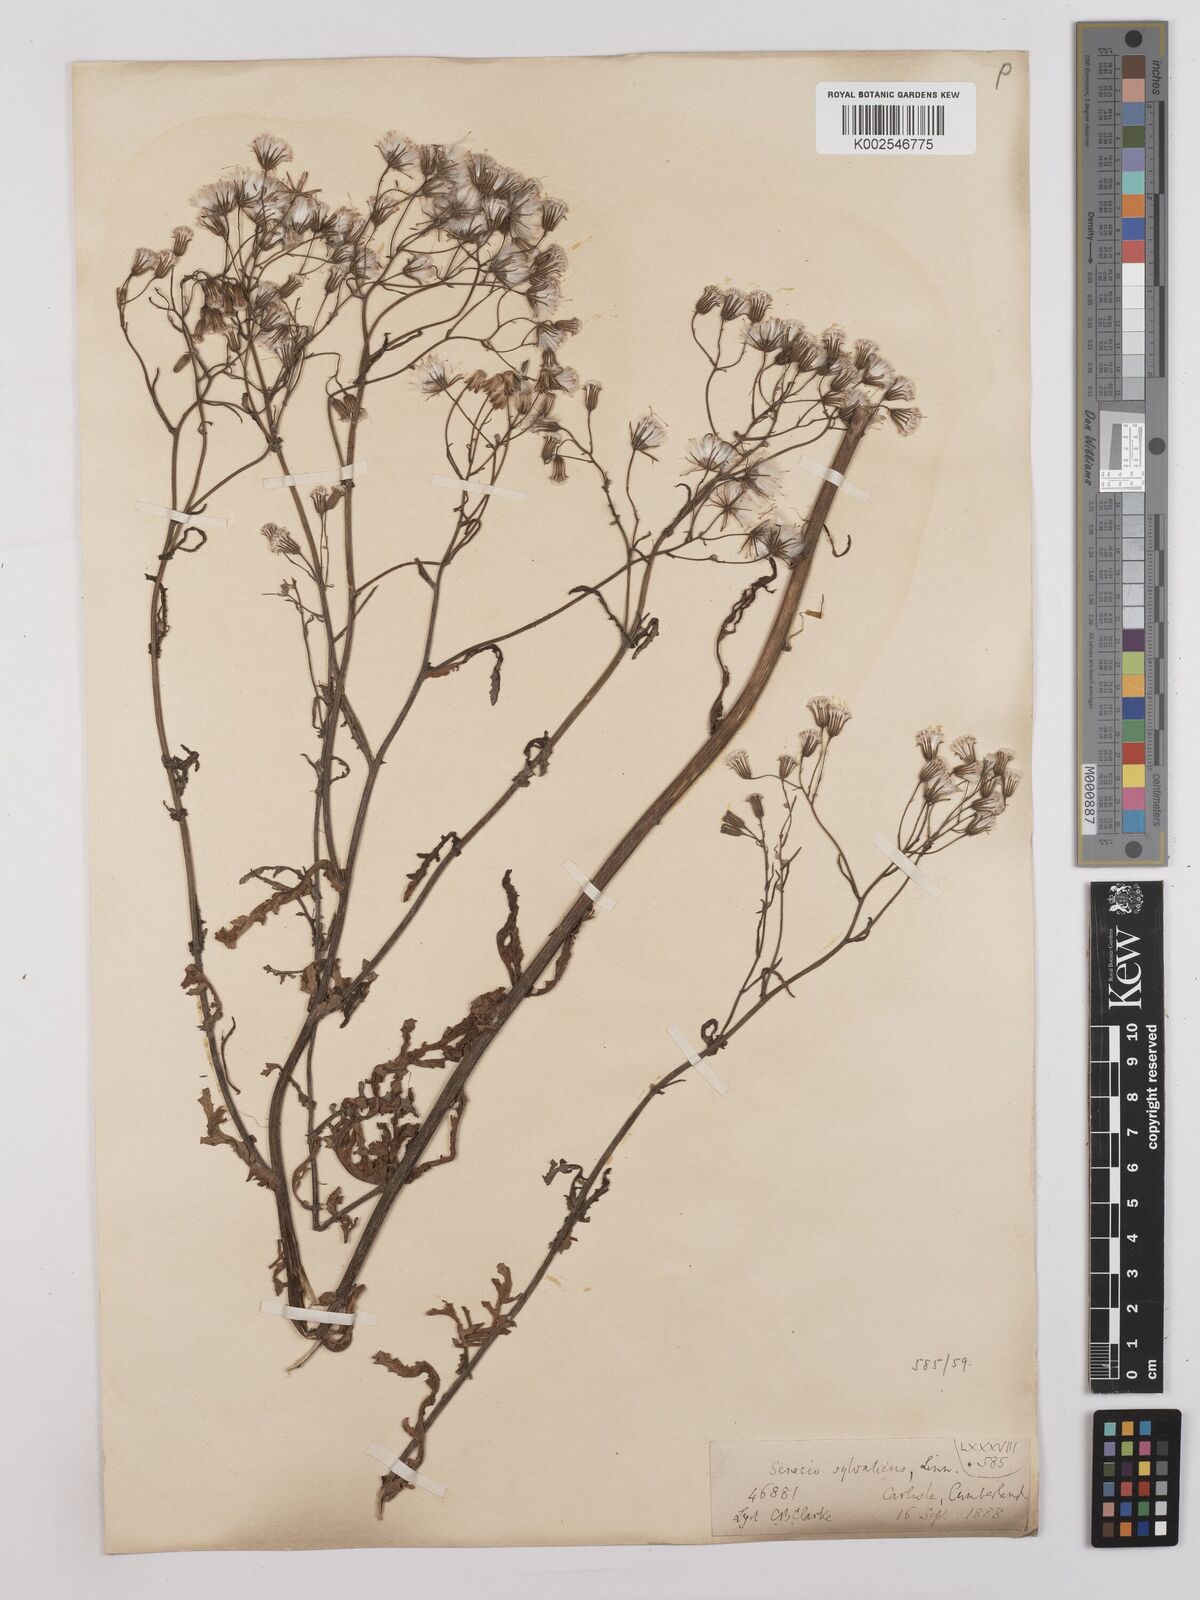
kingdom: Plantae
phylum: Tracheophyta
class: Magnoliopsida
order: Asterales
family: Asteraceae
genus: Senecio
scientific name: Senecio sylvaticus
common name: Woodland ragwort
